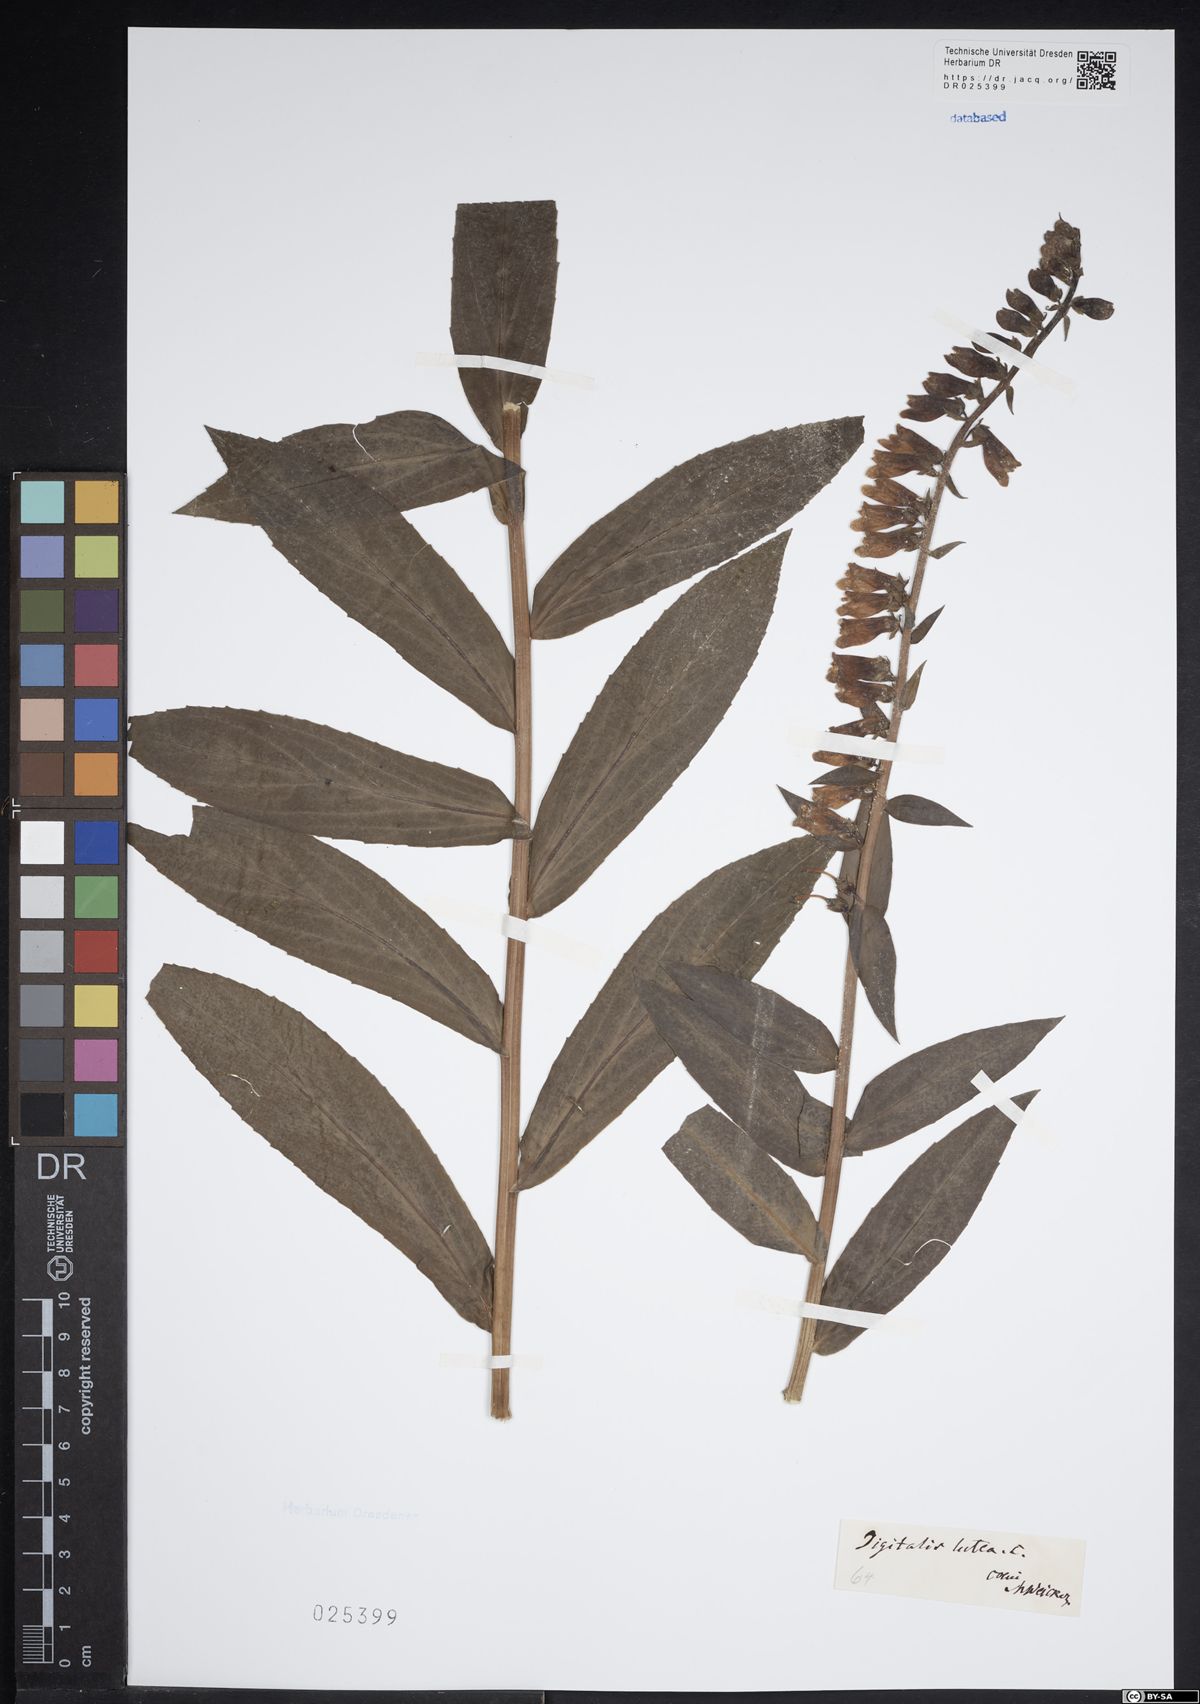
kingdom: Plantae
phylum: Tracheophyta
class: Magnoliopsida
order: Lamiales
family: Plantaginaceae
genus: Digitalis
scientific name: Digitalis lutea
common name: Straw foxglove
